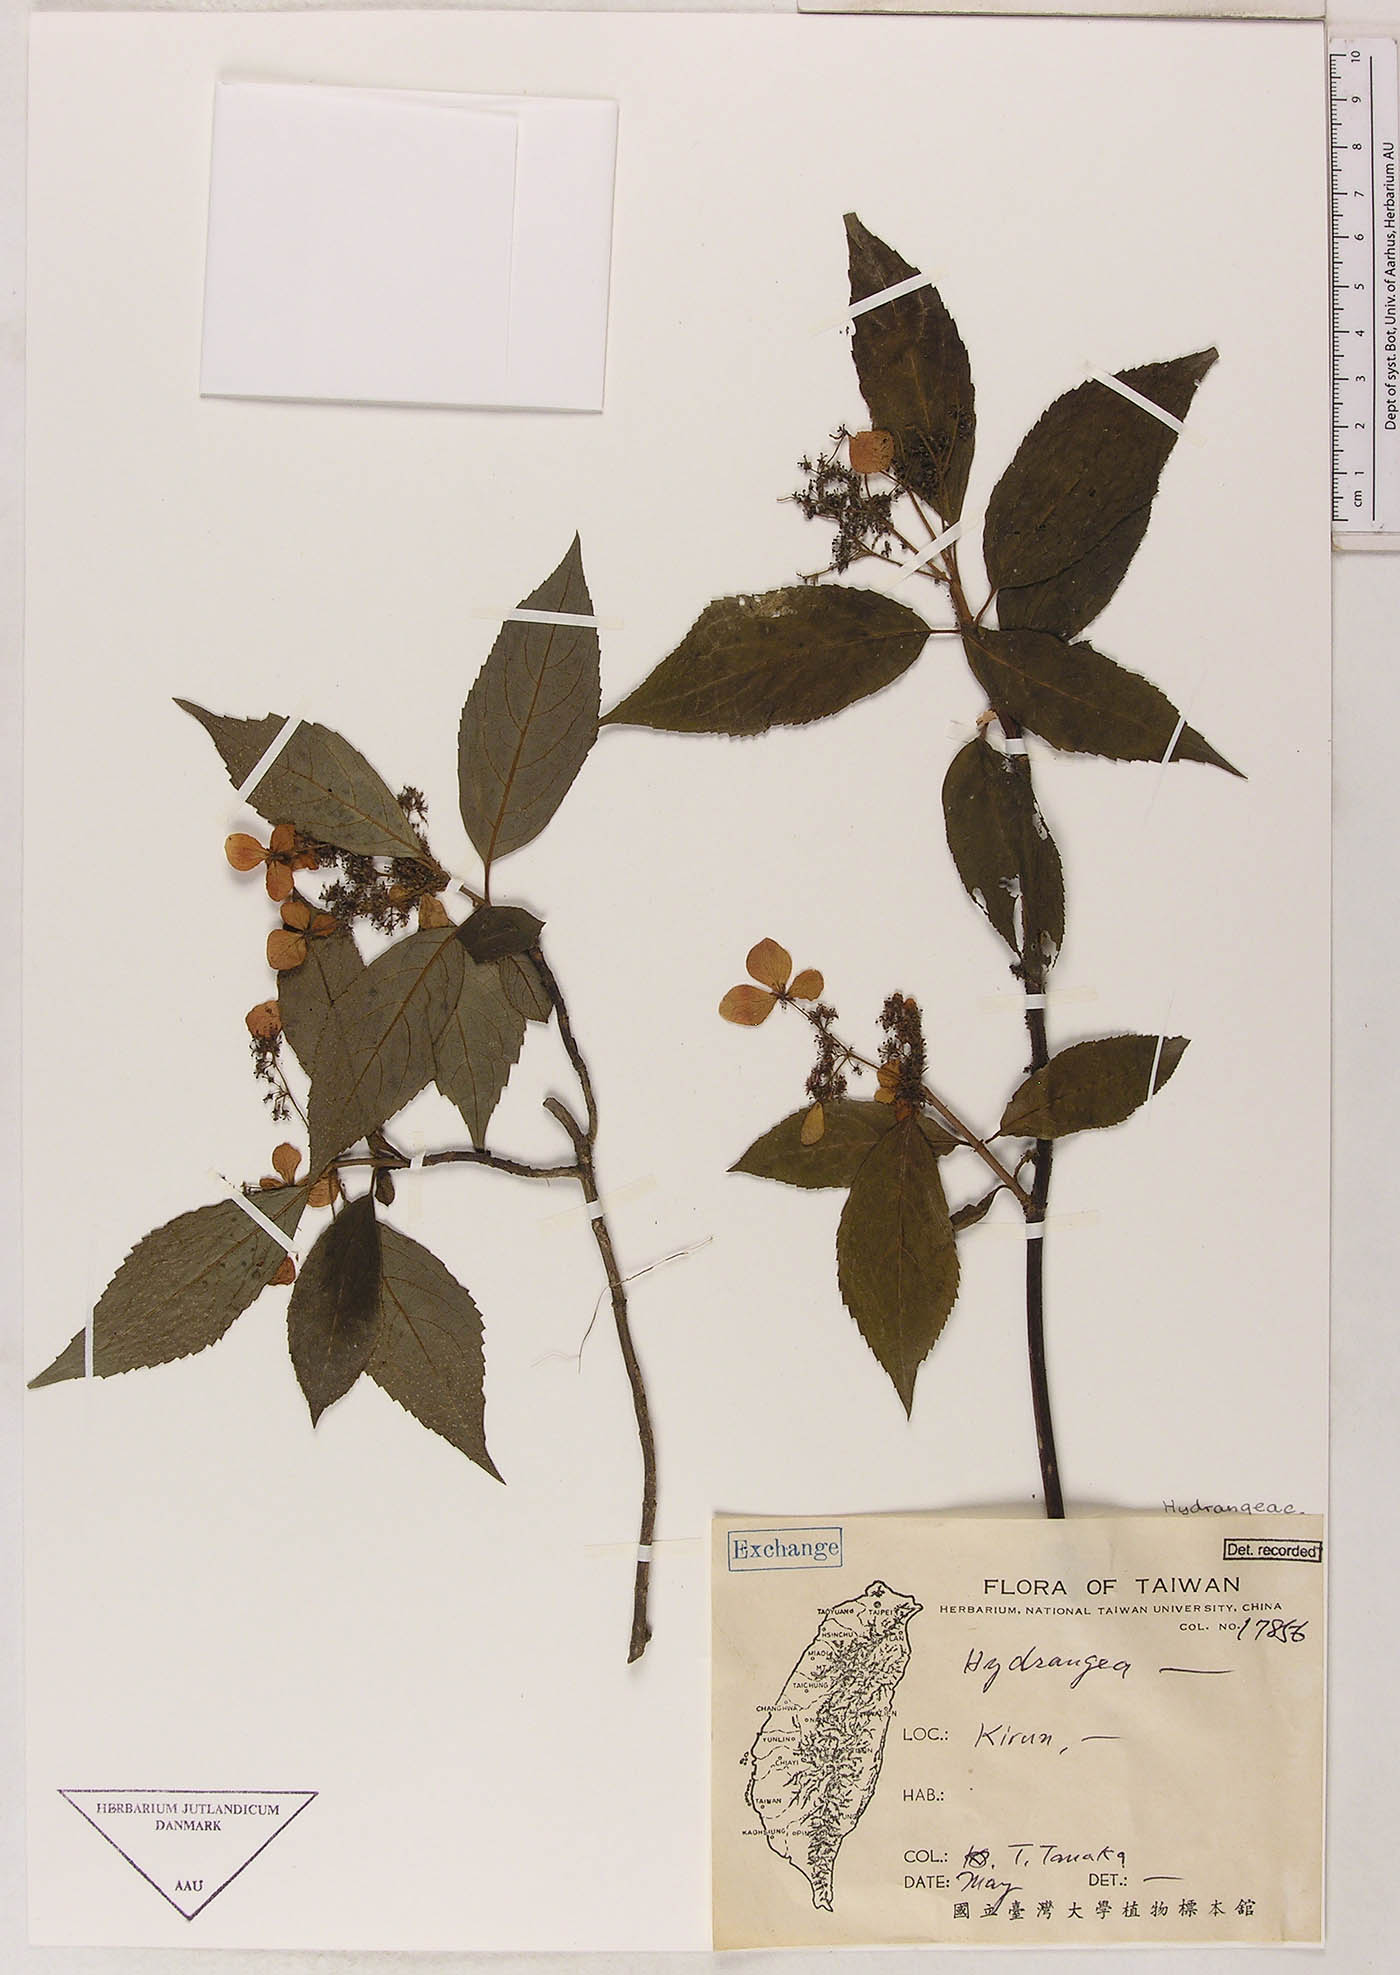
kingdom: Plantae
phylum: Tracheophyta
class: Magnoliopsida
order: Cornales
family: Hydrangeaceae
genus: Hydrangea
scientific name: Hydrangea
